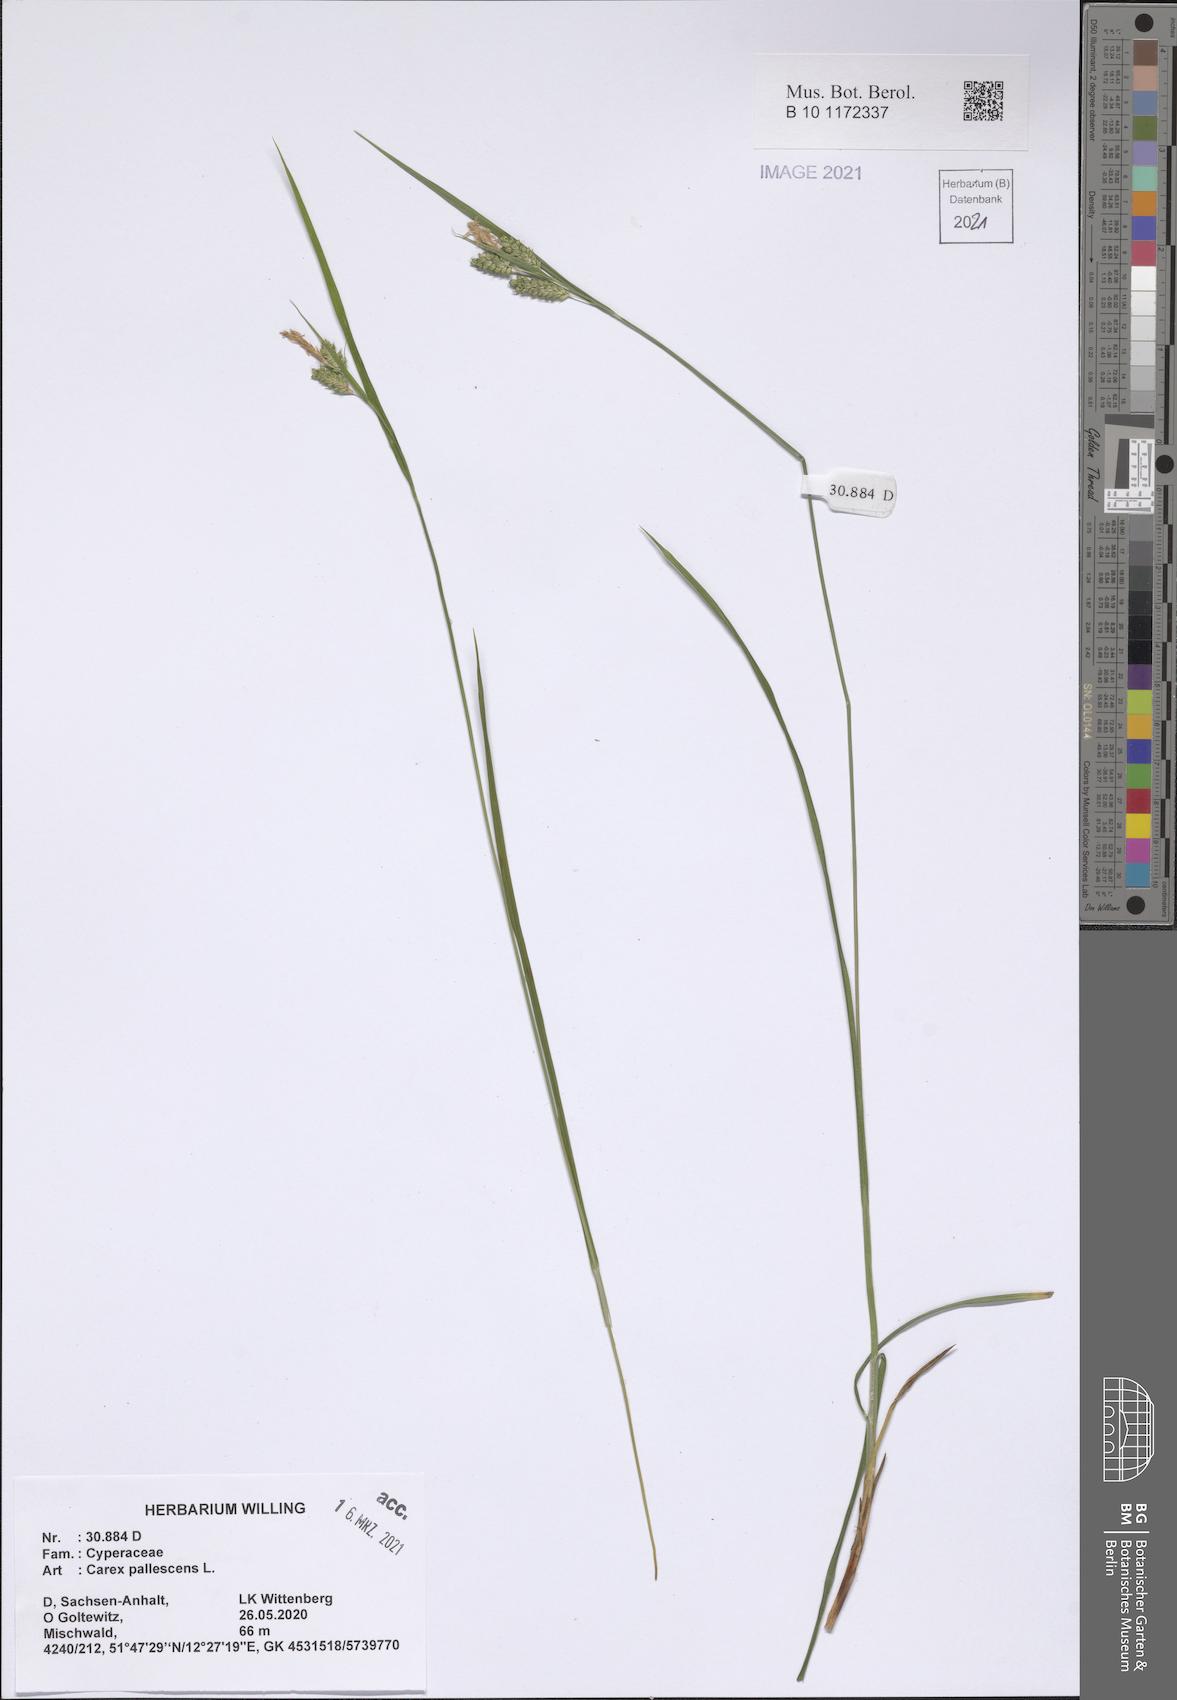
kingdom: Plantae
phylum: Tracheophyta
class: Liliopsida
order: Poales
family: Cyperaceae
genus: Carex
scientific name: Carex pallescens
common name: Pale sedge
